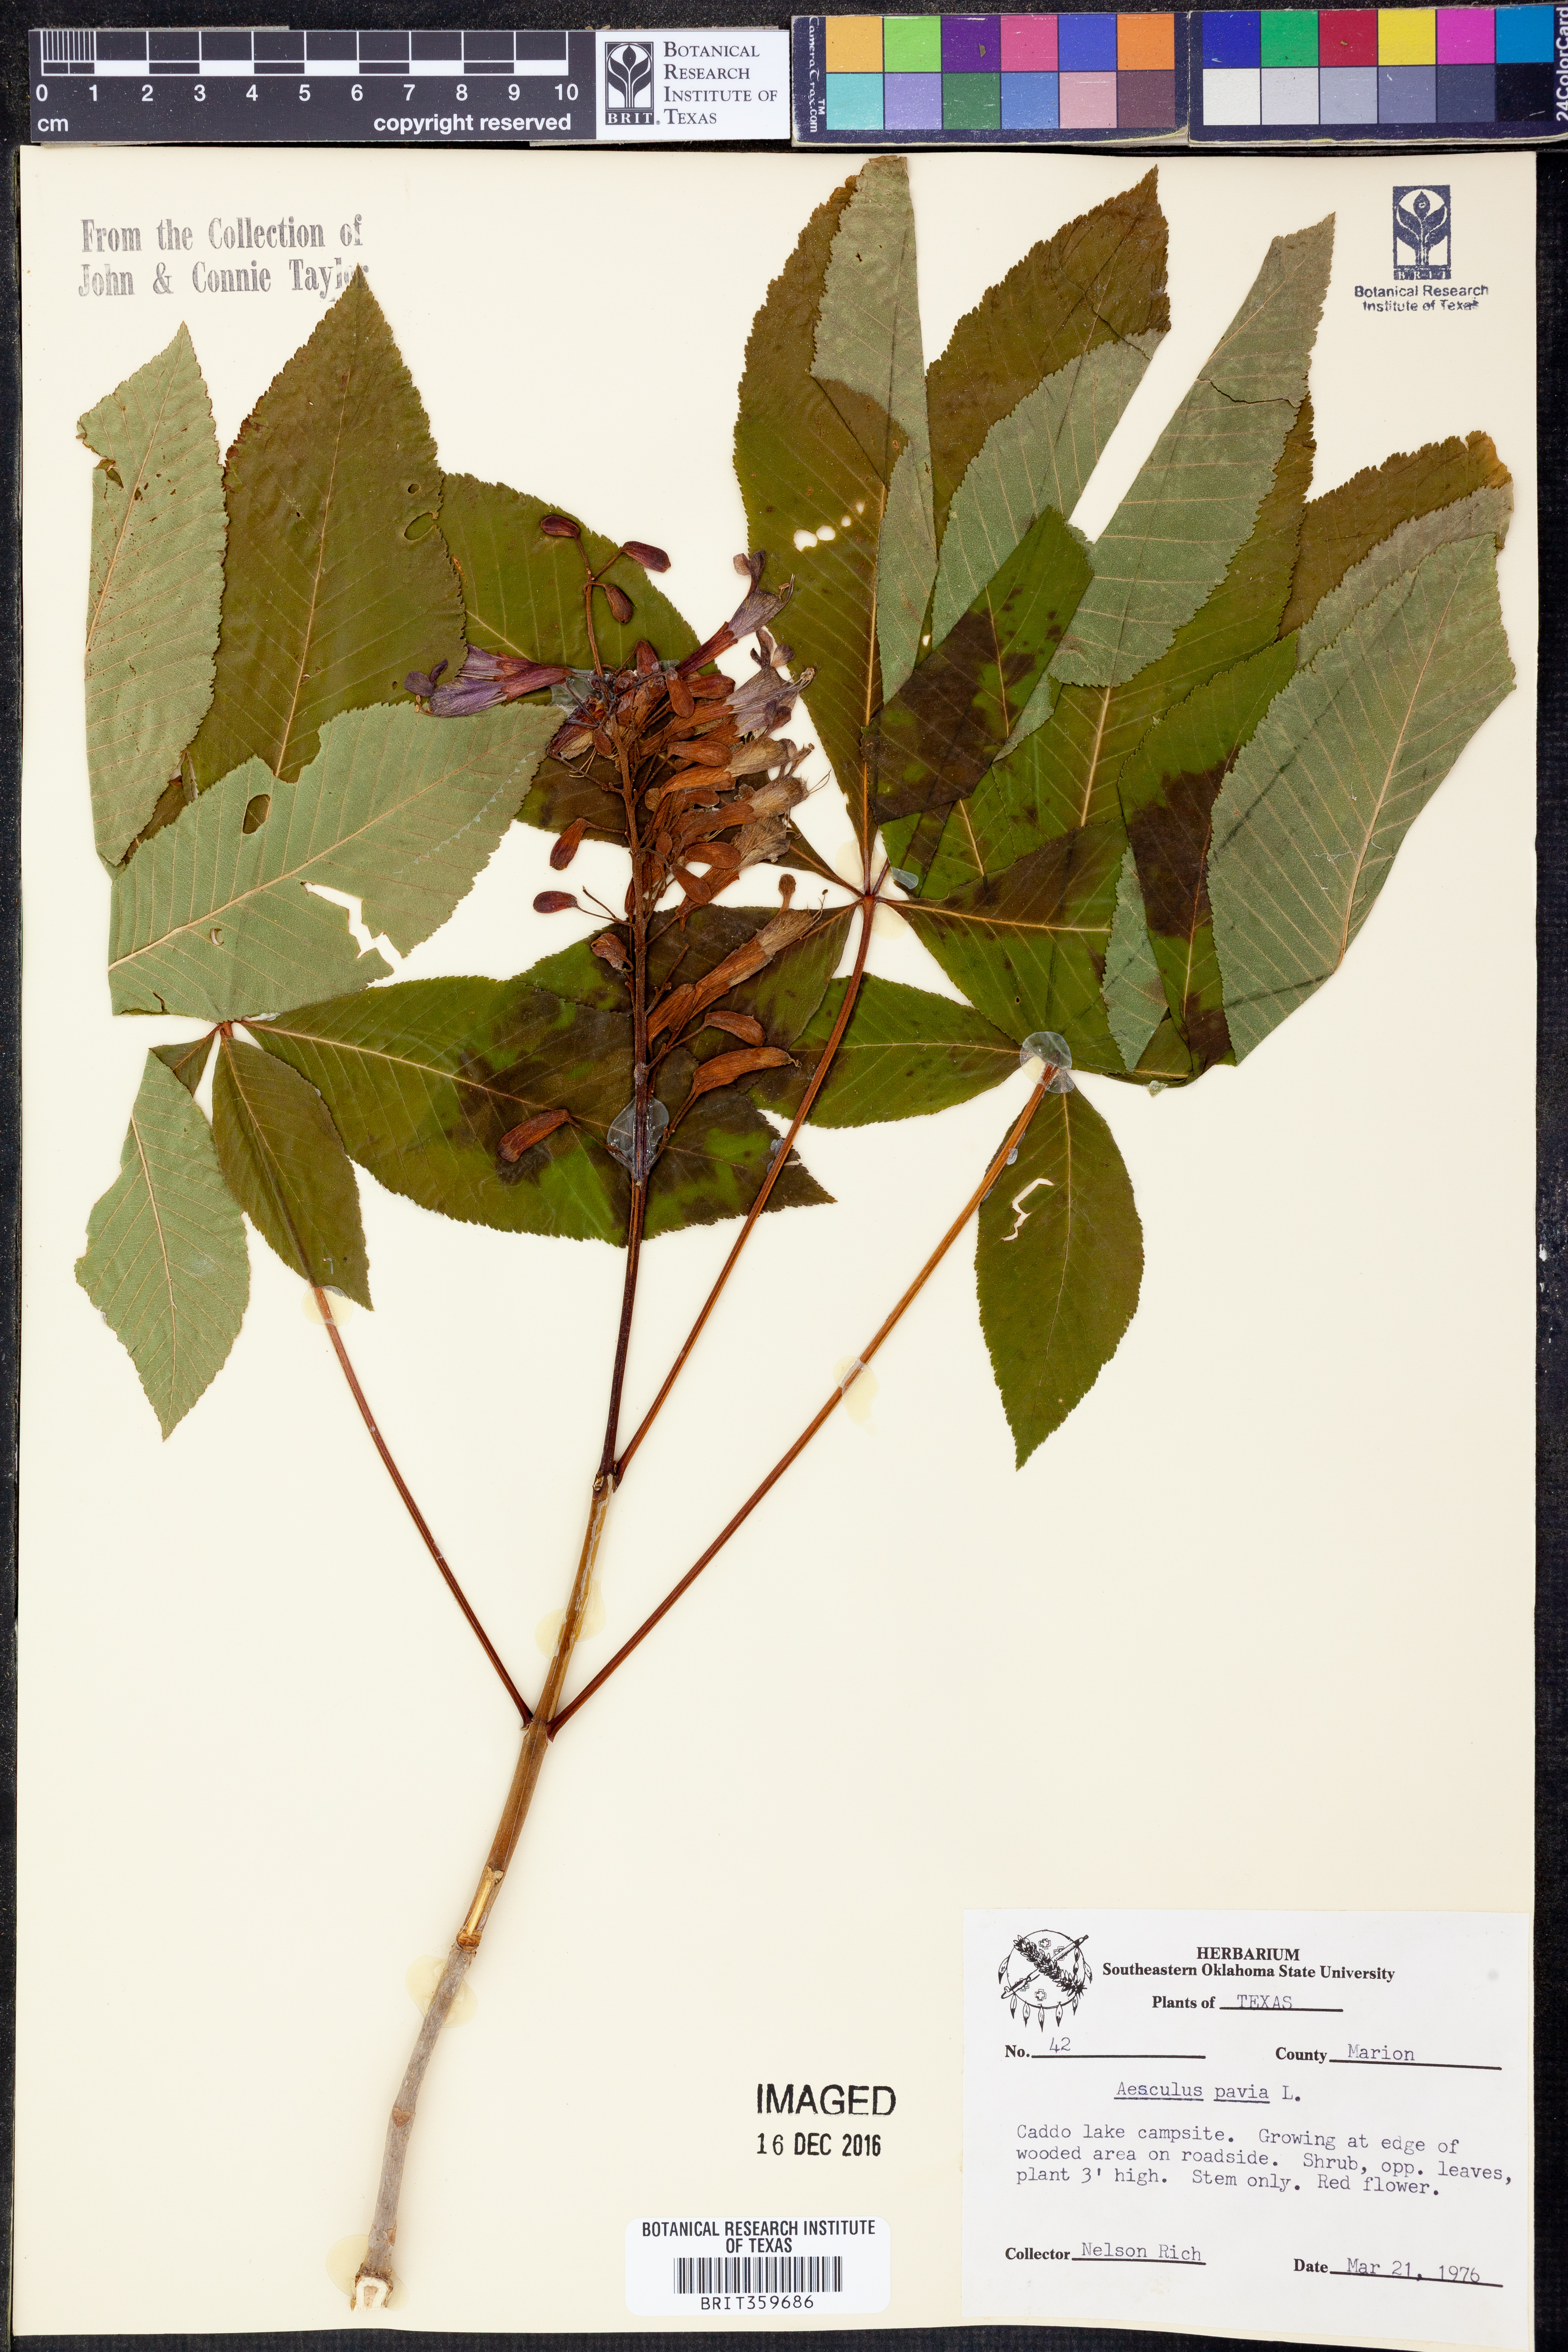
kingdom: Plantae
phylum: Tracheophyta
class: Magnoliopsida
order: Sapindales
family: Sapindaceae
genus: Aesculus
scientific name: Aesculus pavia
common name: Red buckeye
